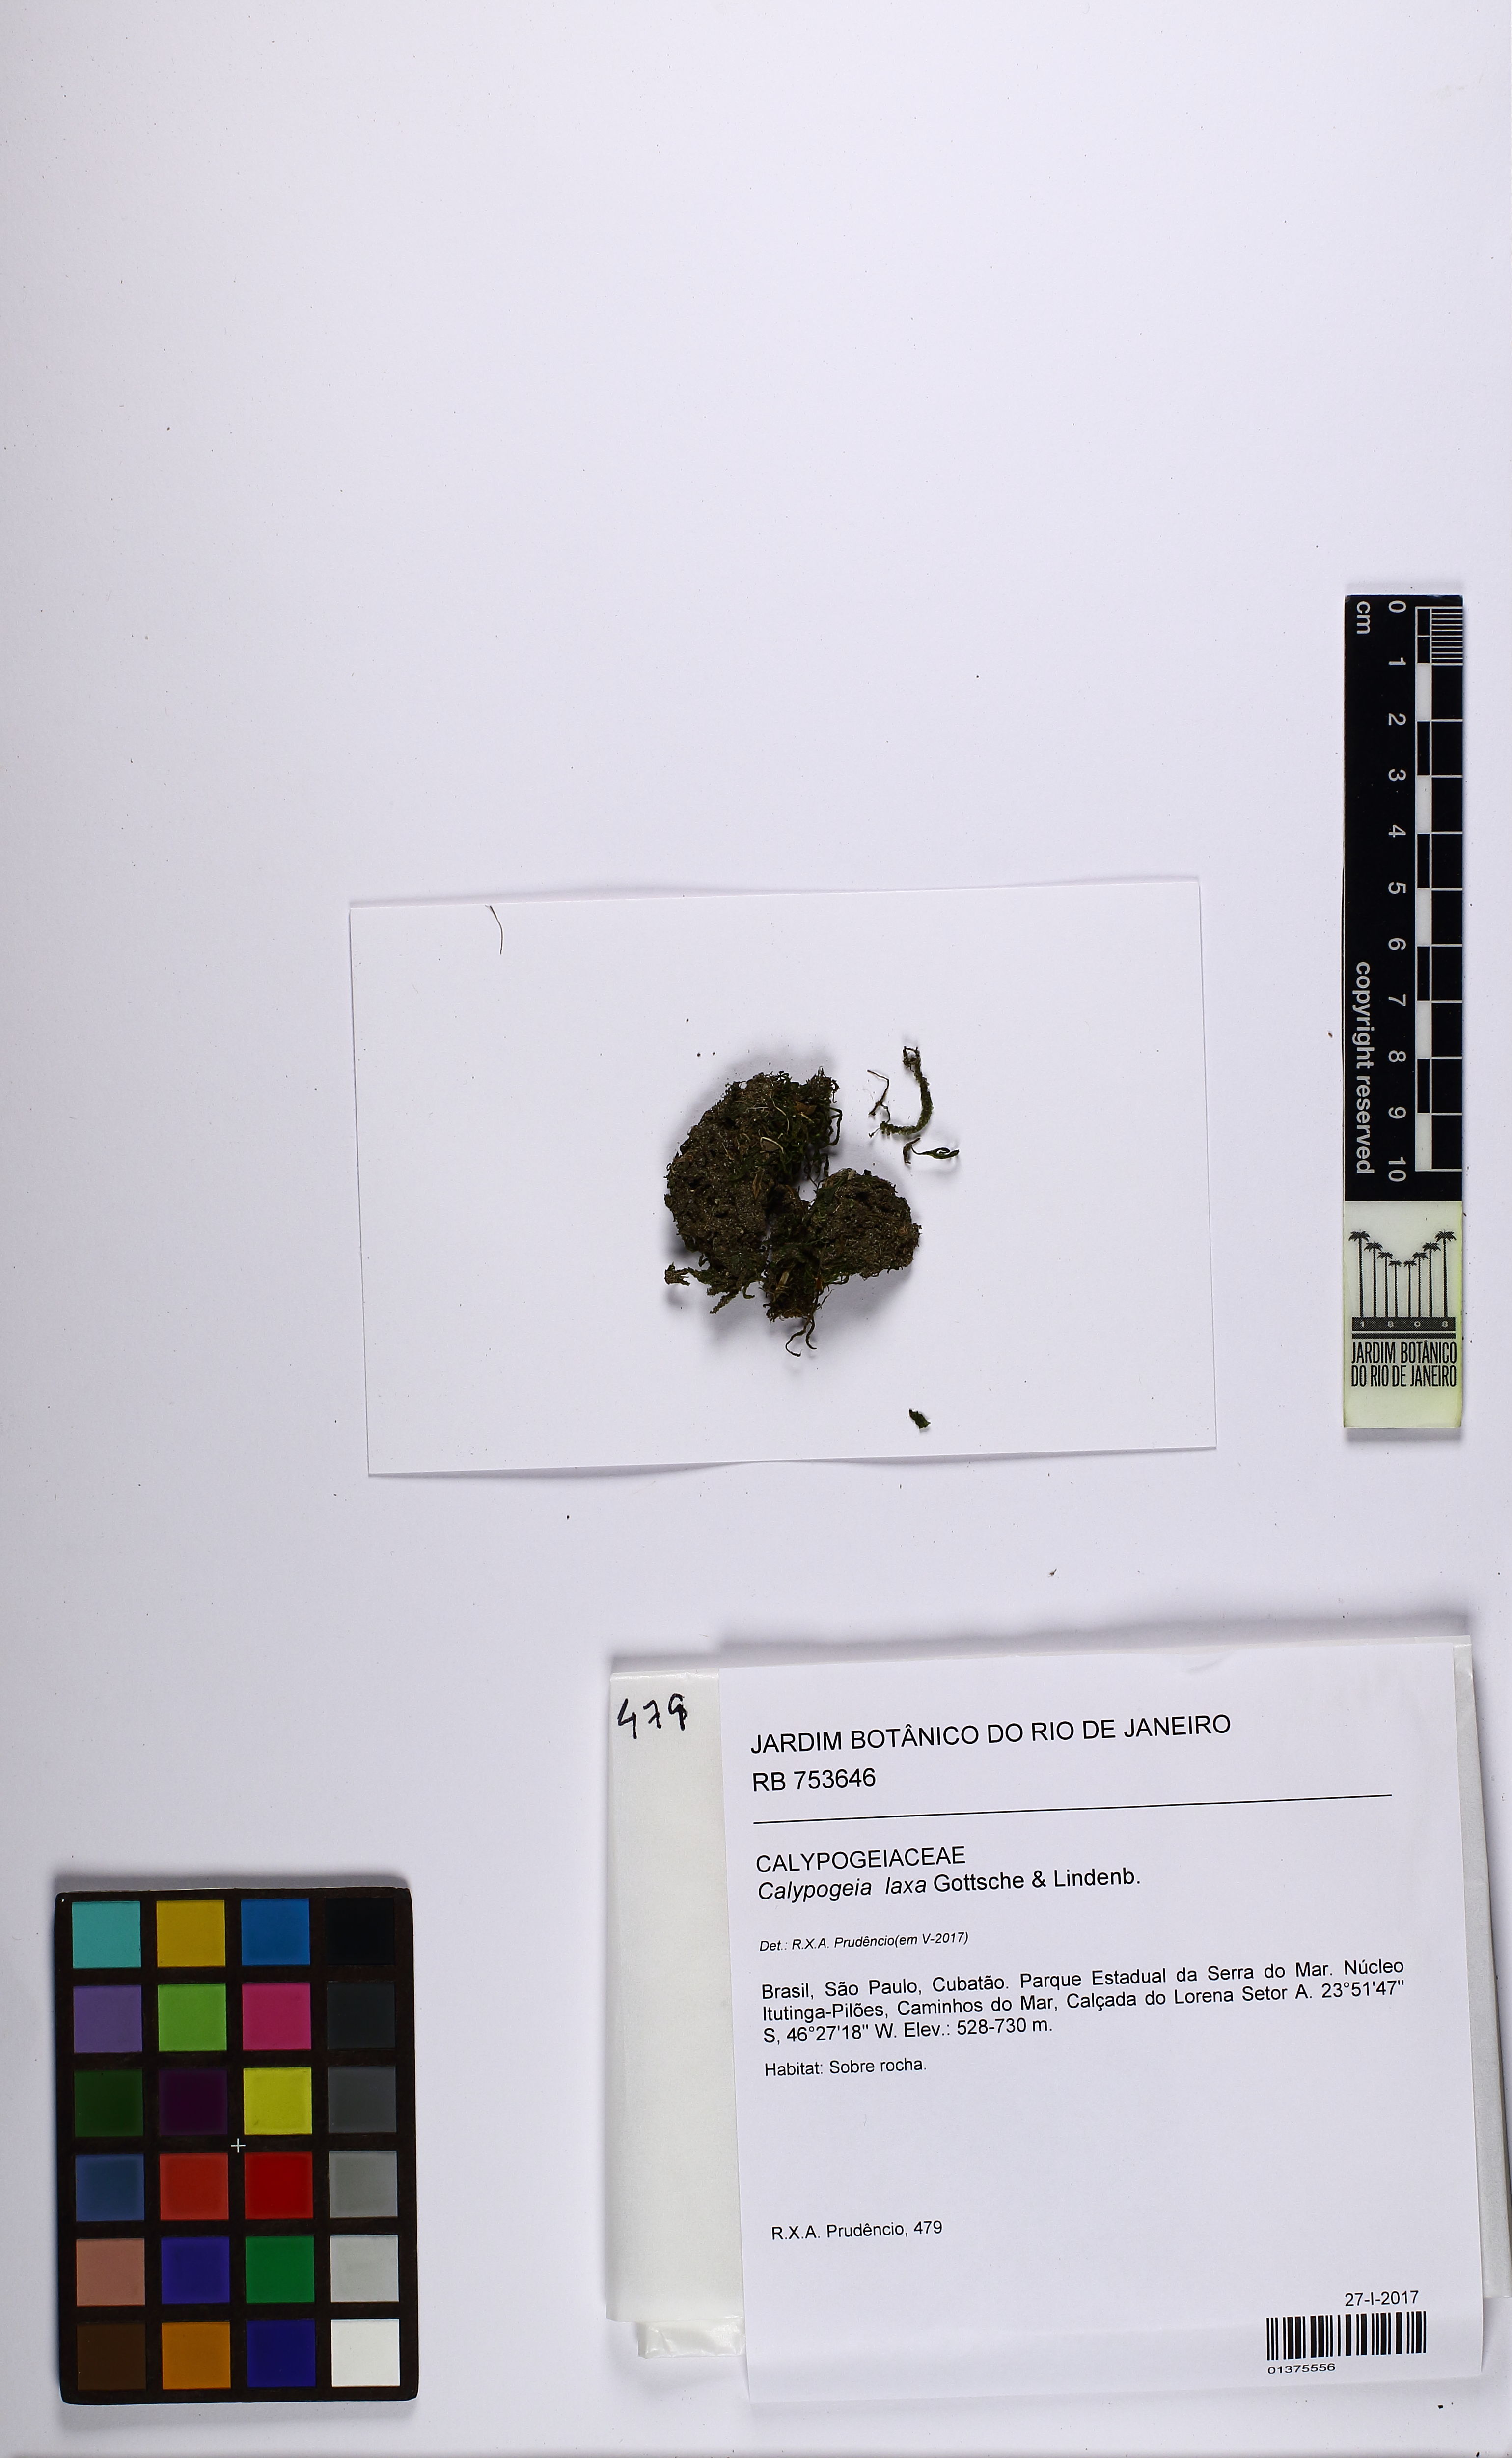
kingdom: Plantae
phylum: Marchantiophyta
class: Jungermanniopsida
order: Jungermanniales
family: Calypogeiaceae
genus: Calypogeia
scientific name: Calypogeia laxa
